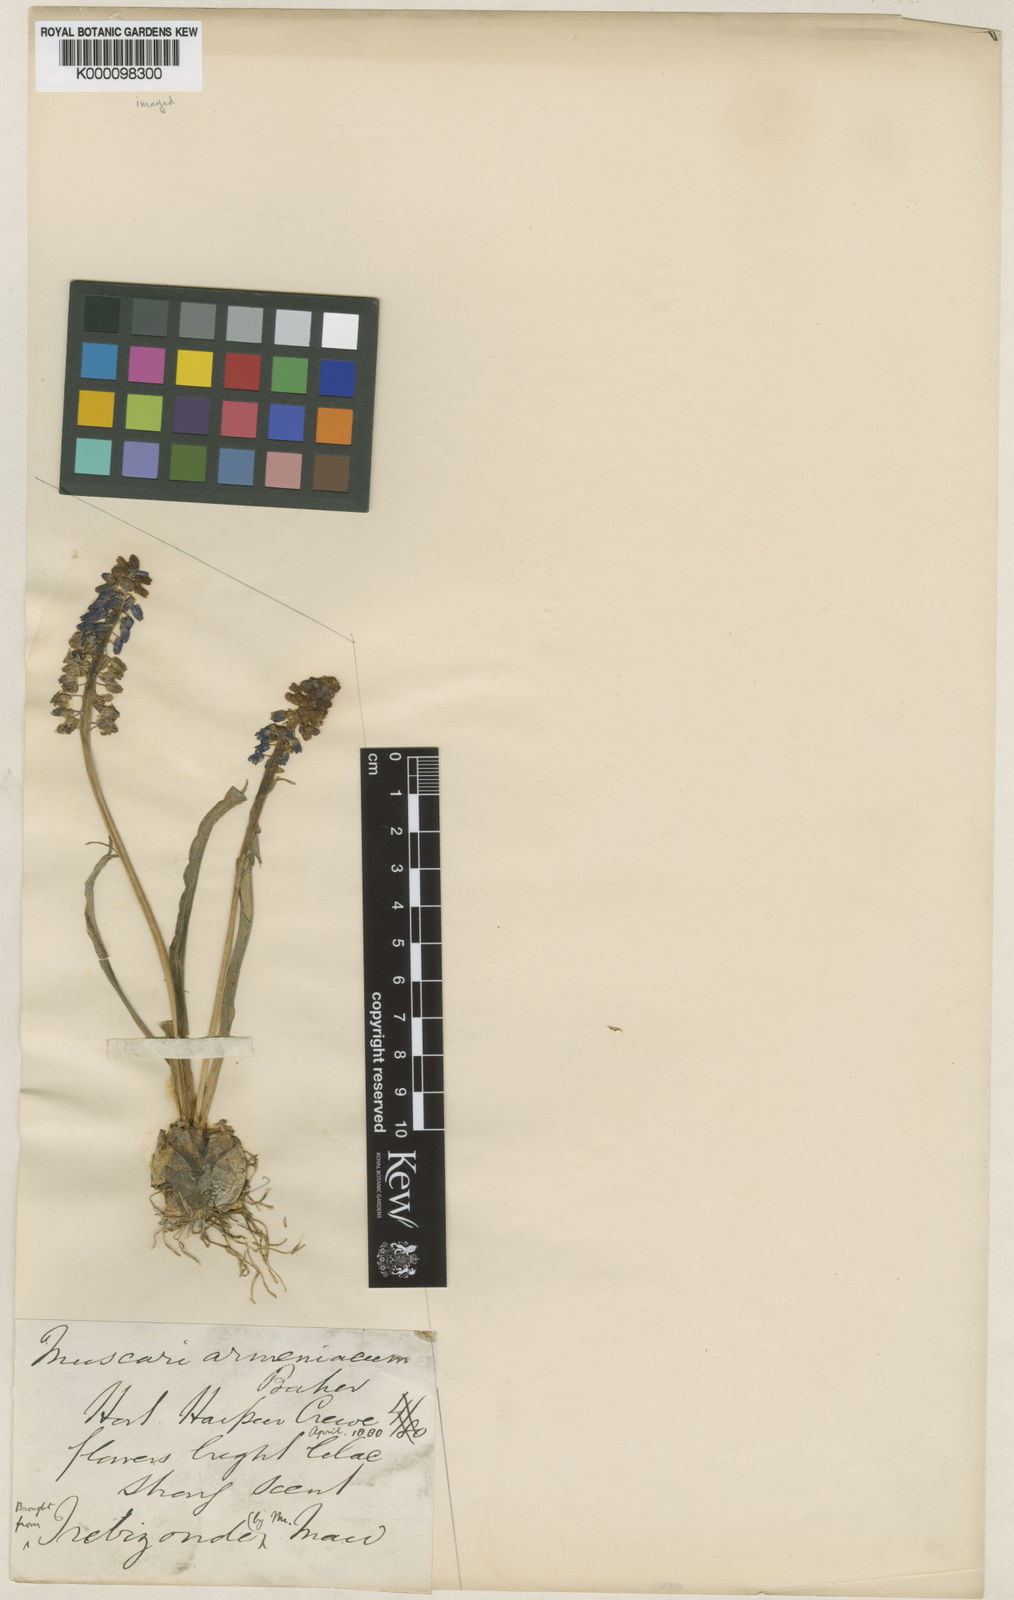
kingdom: Plantae
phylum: Tracheophyta
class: Liliopsida
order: Asparagales
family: Asparagaceae
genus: Muscari
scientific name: Muscari
